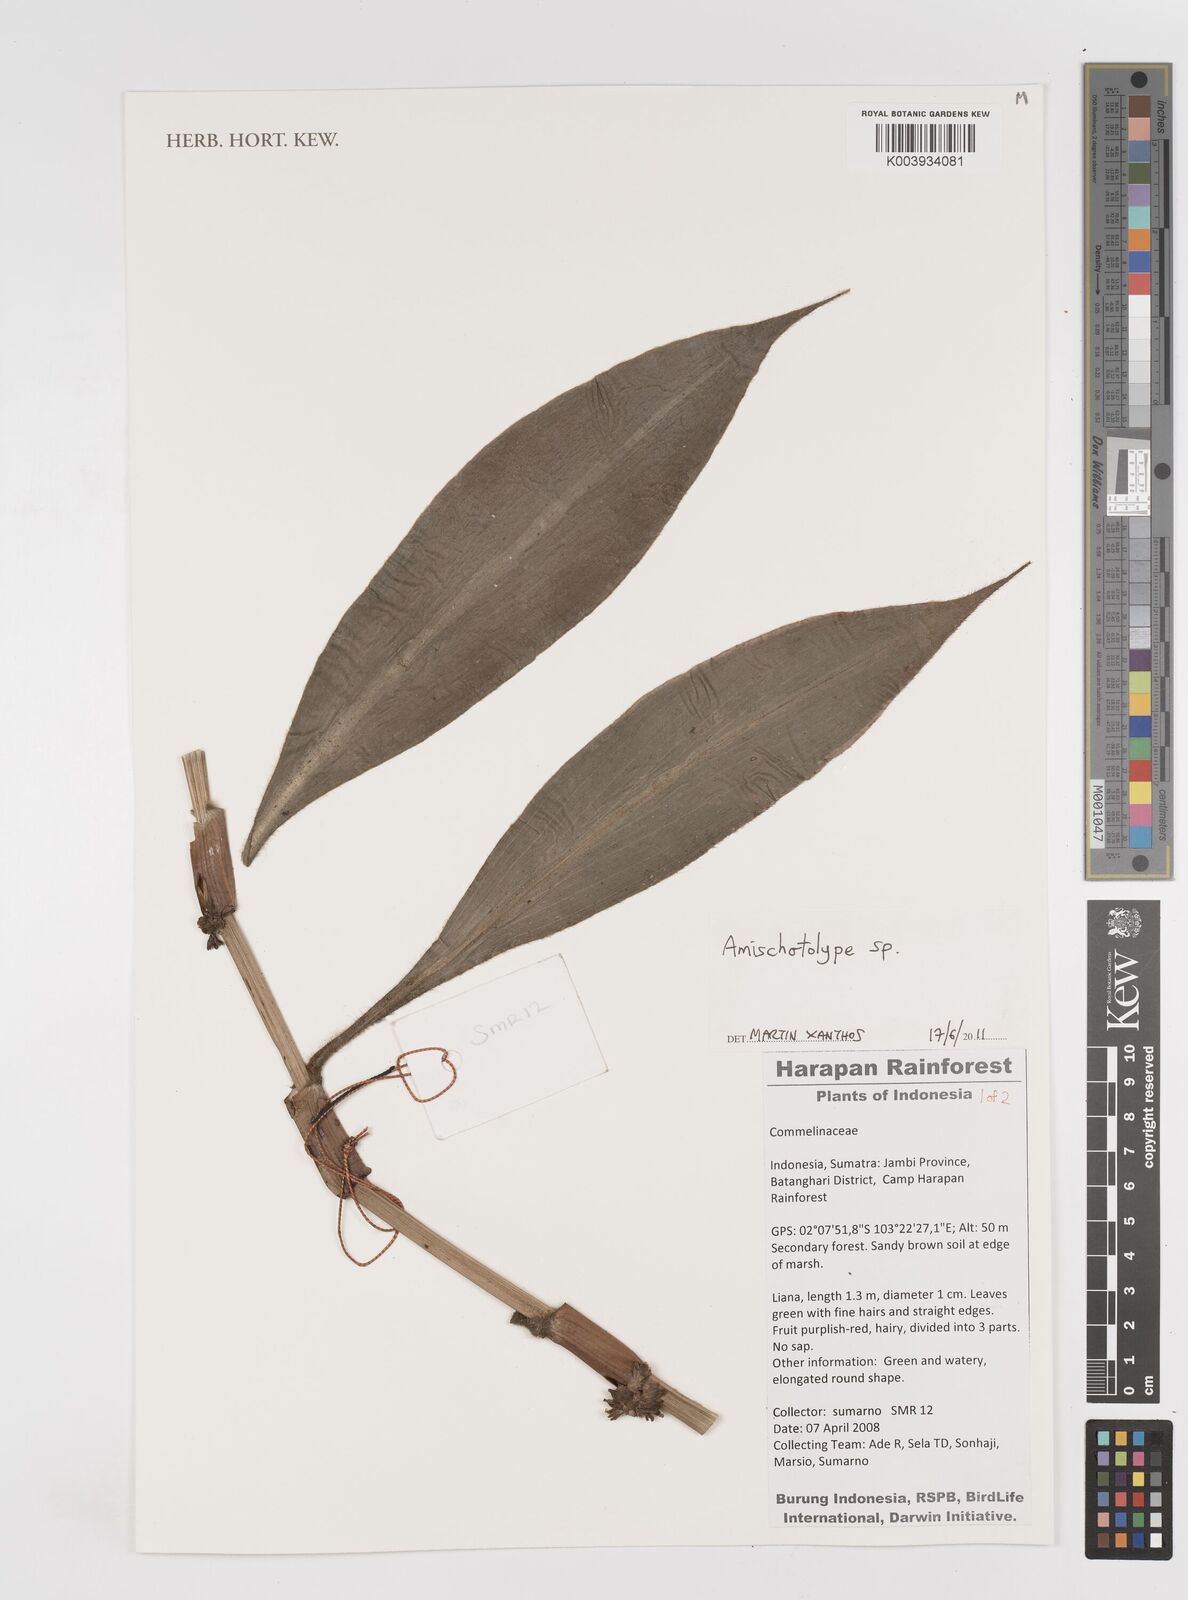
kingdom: Plantae
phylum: Tracheophyta
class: Liliopsida
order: Commelinales
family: Commelinaceae
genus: Amischotolype
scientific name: Amischotolype
